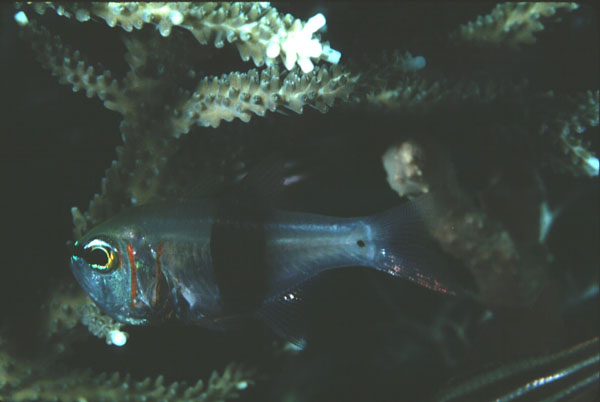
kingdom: Animalia
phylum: Chordata
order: Perciformes
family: Apogonidae
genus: Taeniamia
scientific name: Taeniamia zosterophora
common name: Girdled cardinalfish
